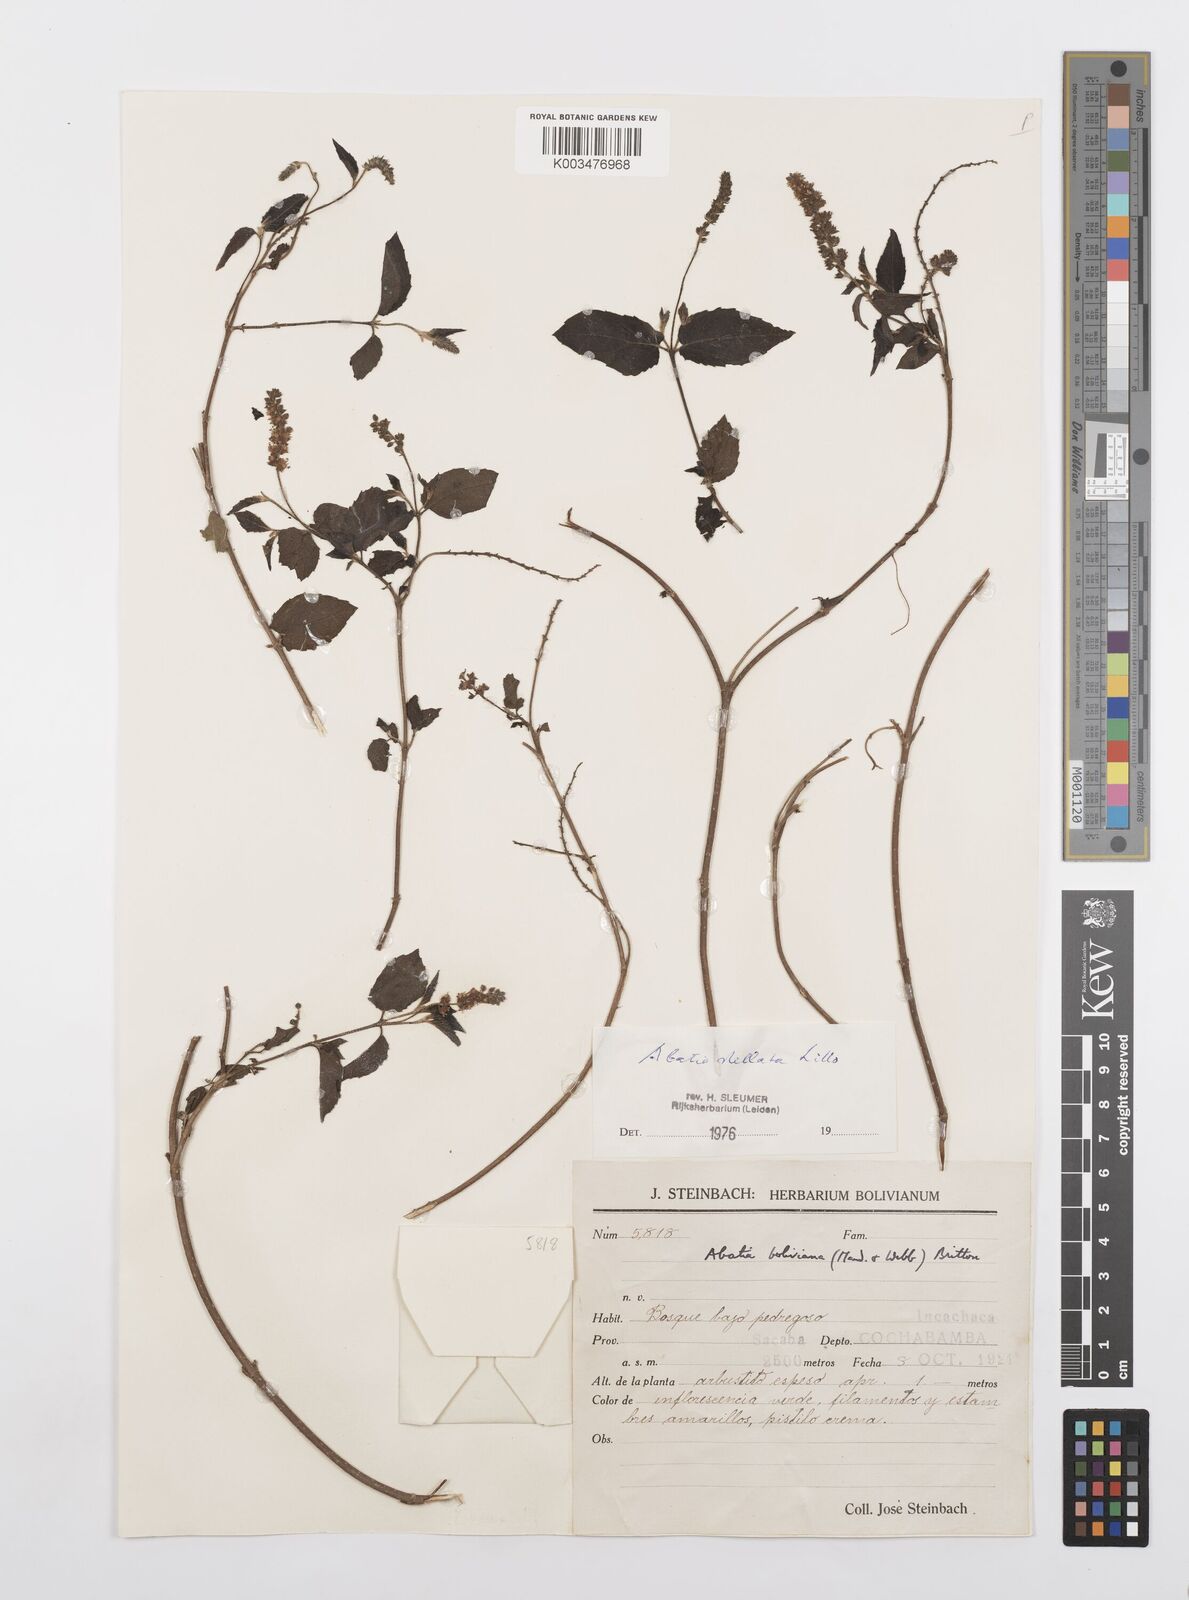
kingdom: Plantae
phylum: Tracheophyta
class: Magnoliopsida
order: Malpighiales
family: Salicaceae
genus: Abatia
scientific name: Abatia stellata
